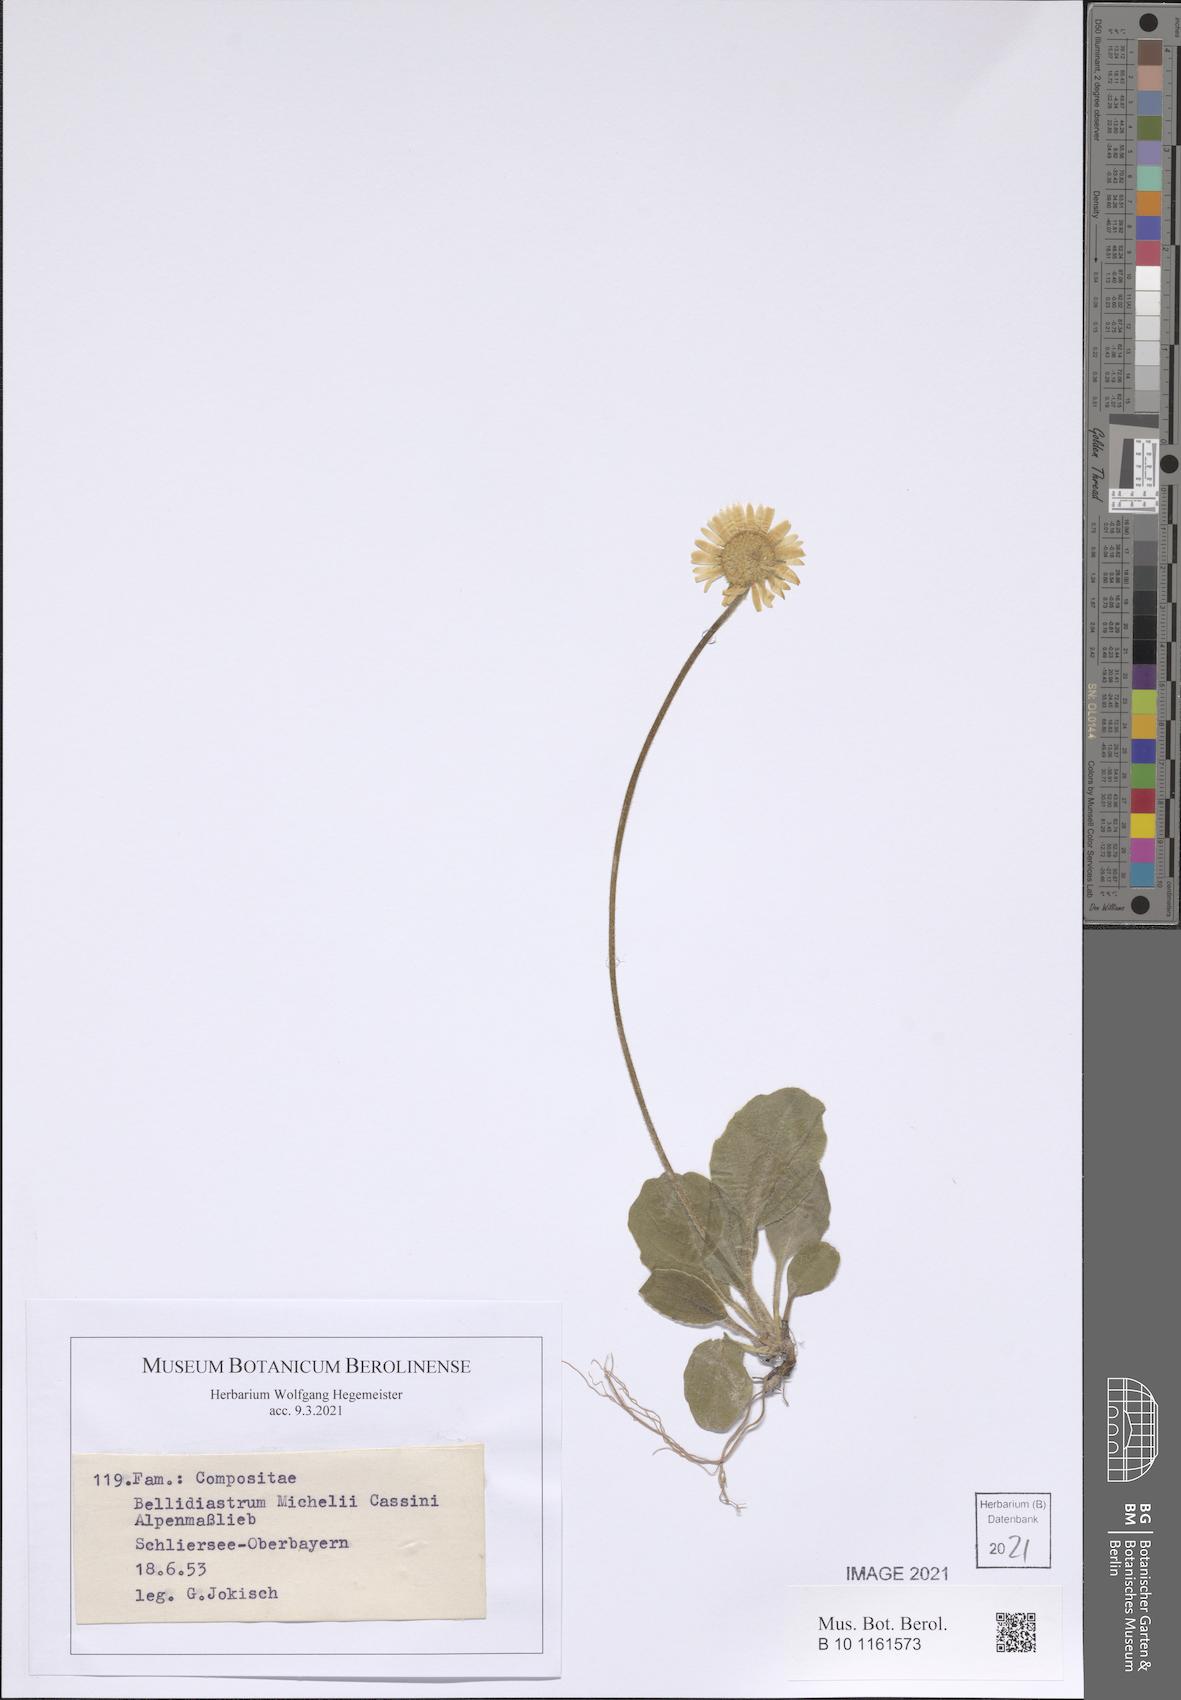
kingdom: Plantae
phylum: Tracheophyta
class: Magnoliopsida
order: Asterales
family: Asteraceae
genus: Bellidiastrum
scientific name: Bellidiastrum michelii
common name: Daisy-star aster
